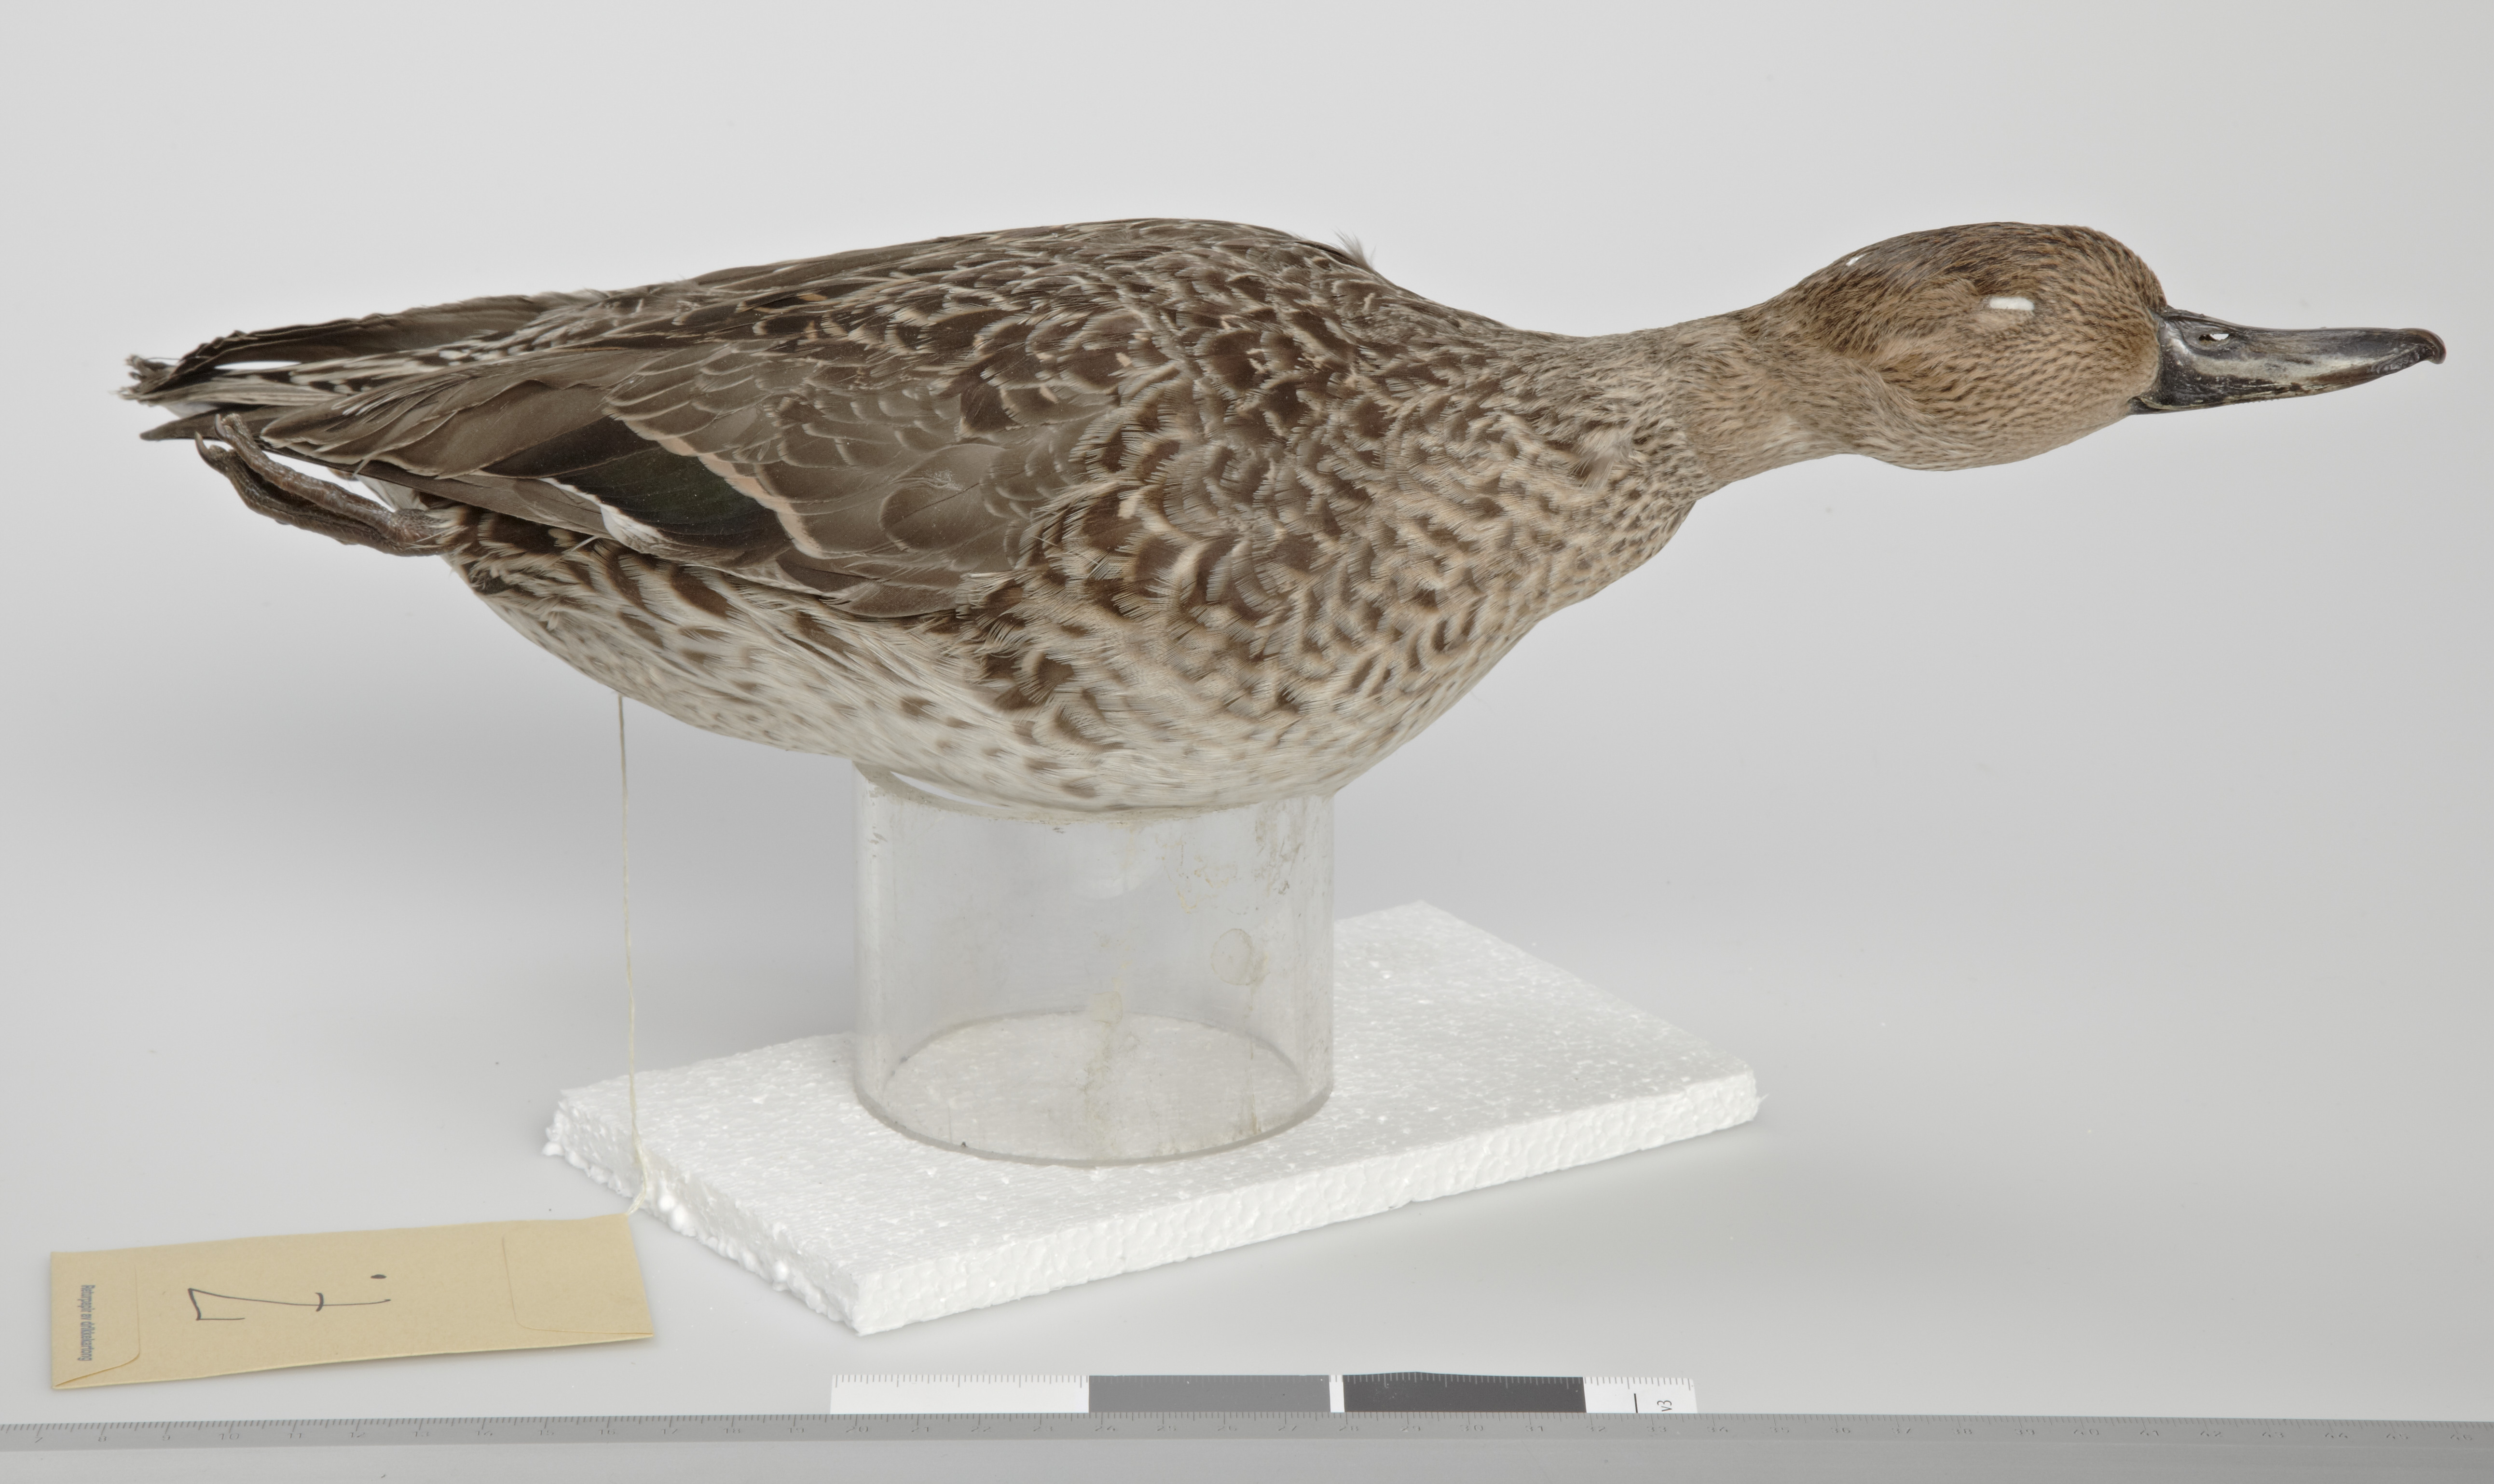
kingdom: Animalia
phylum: Chordata
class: Aves
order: Anseriformes
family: Anatidae
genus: Anas
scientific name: Anas acuta
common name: Northern pintail
